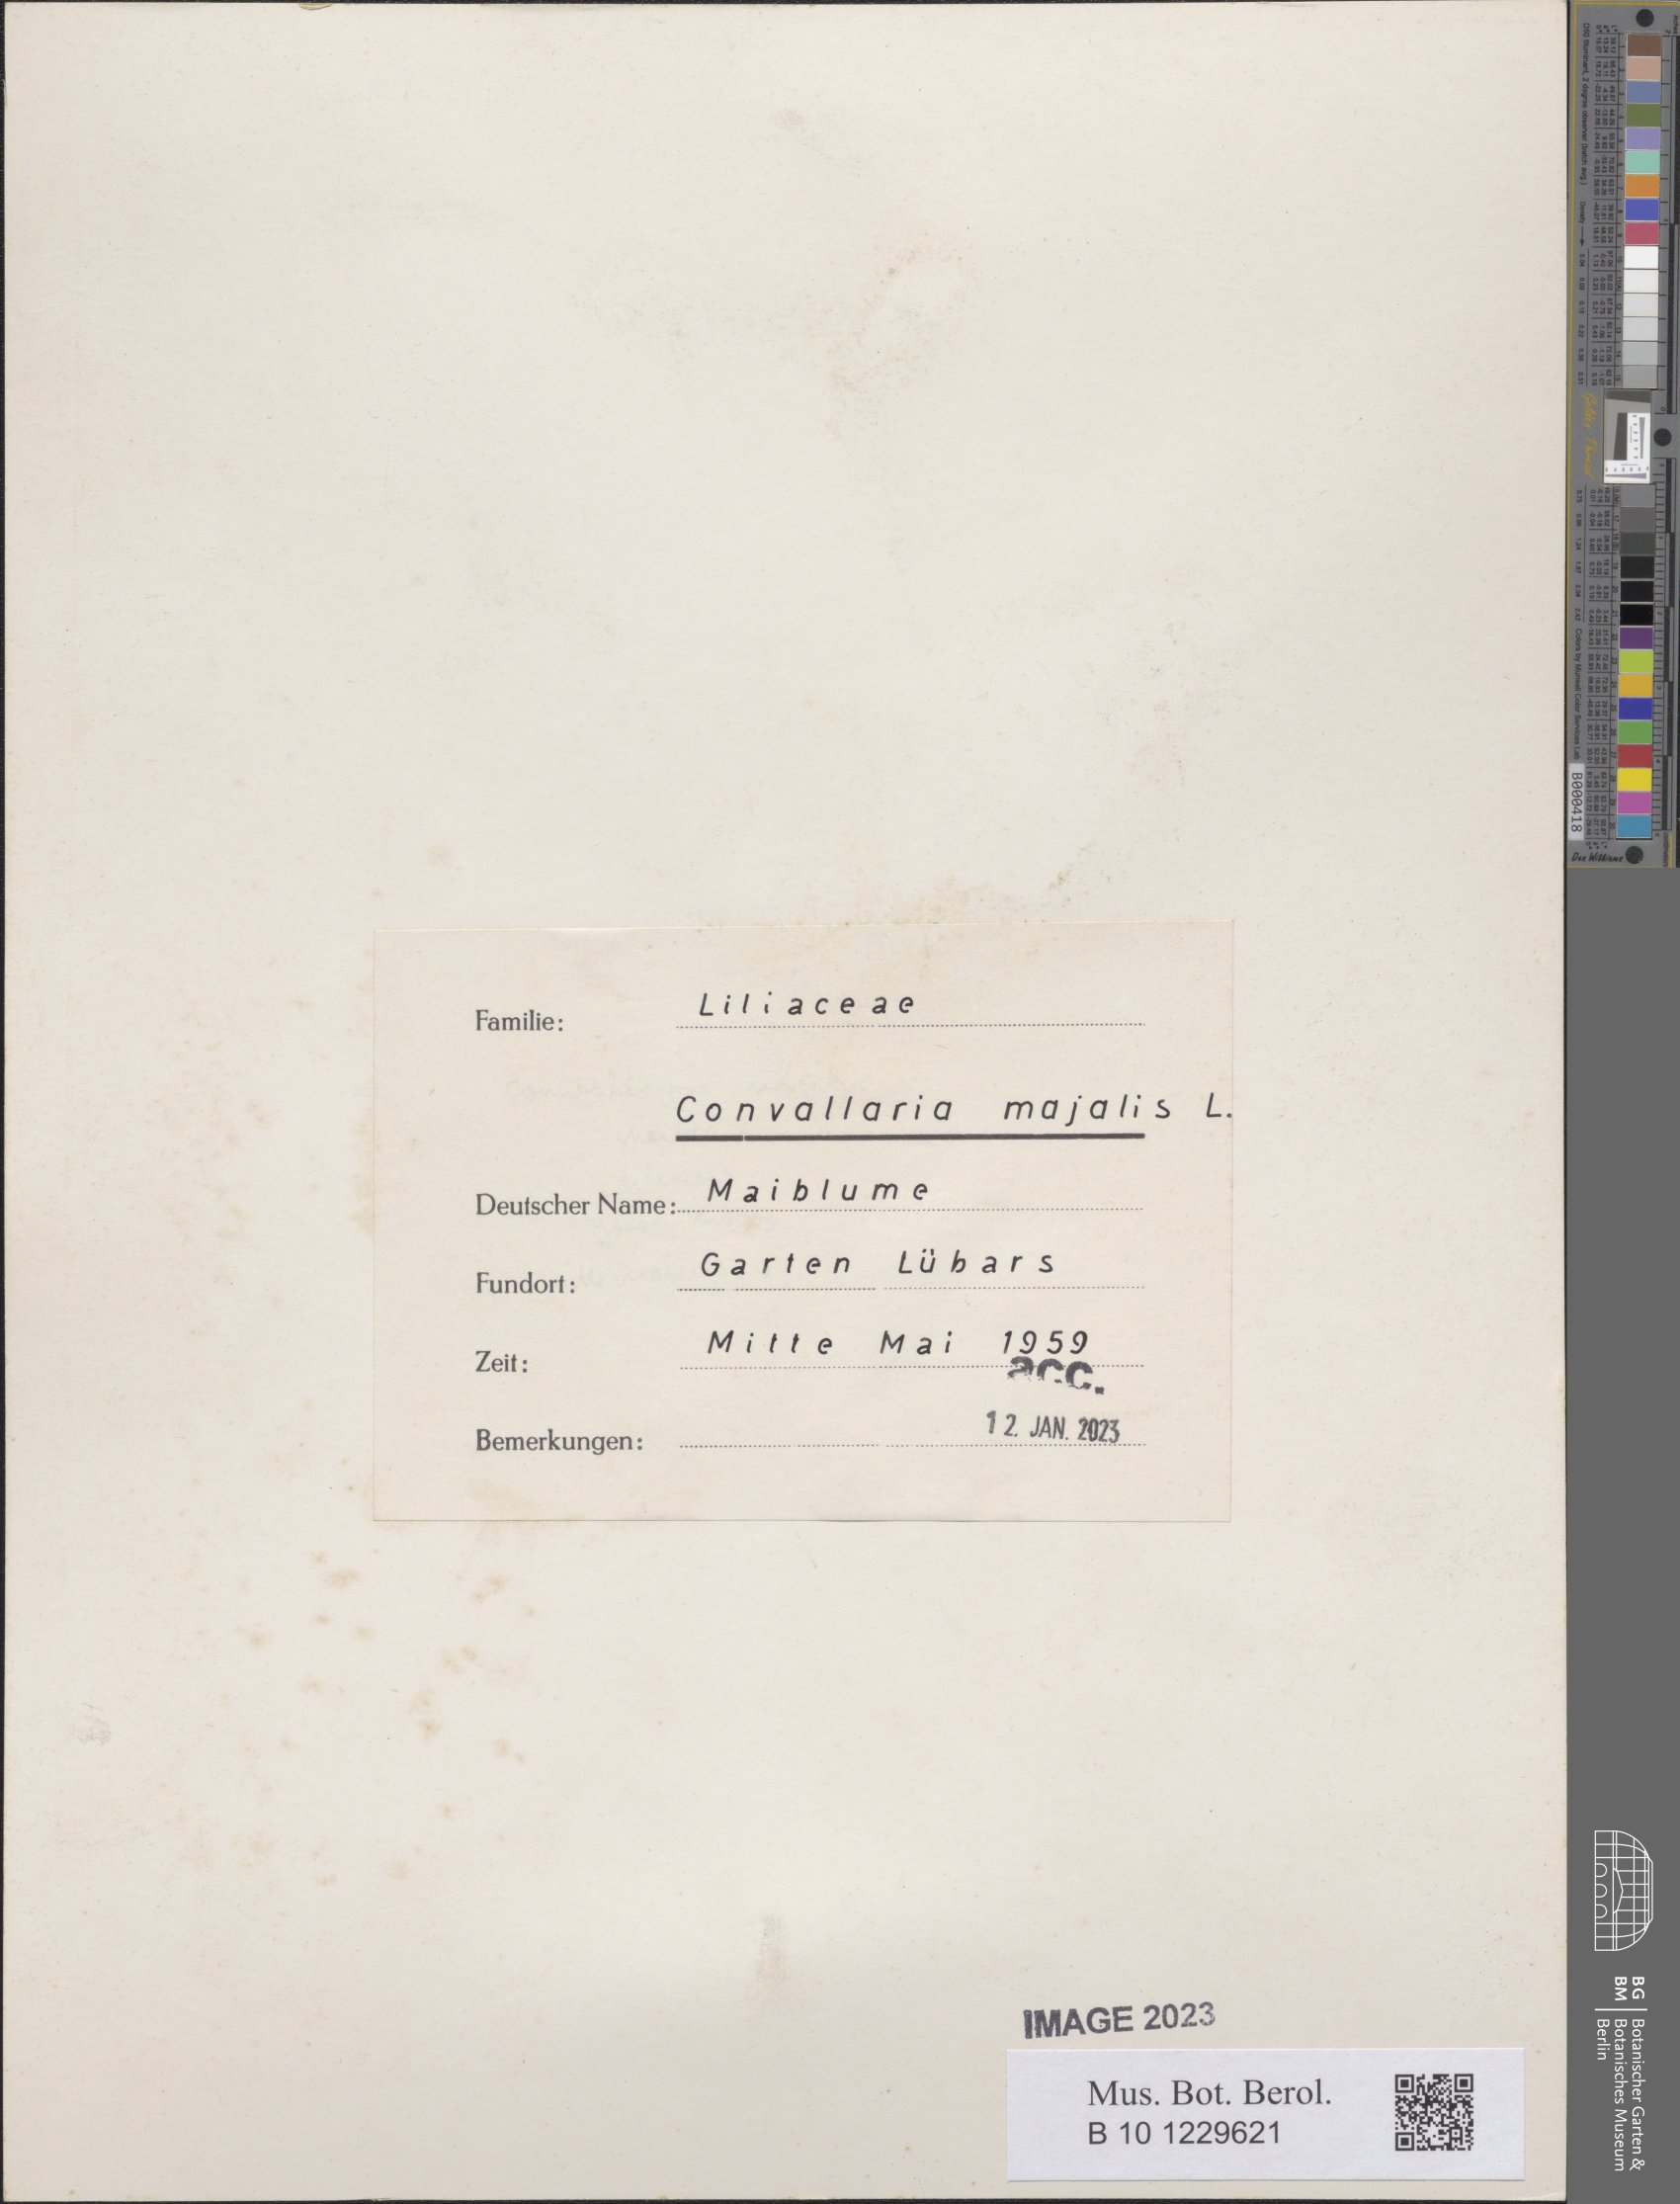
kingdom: Plantae
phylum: Tracheophyta
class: Liliopsida
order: Asparagales
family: Asparagaceae
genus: Convallaria
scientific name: Convallaria majalis
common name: Lily-of-the-valley
